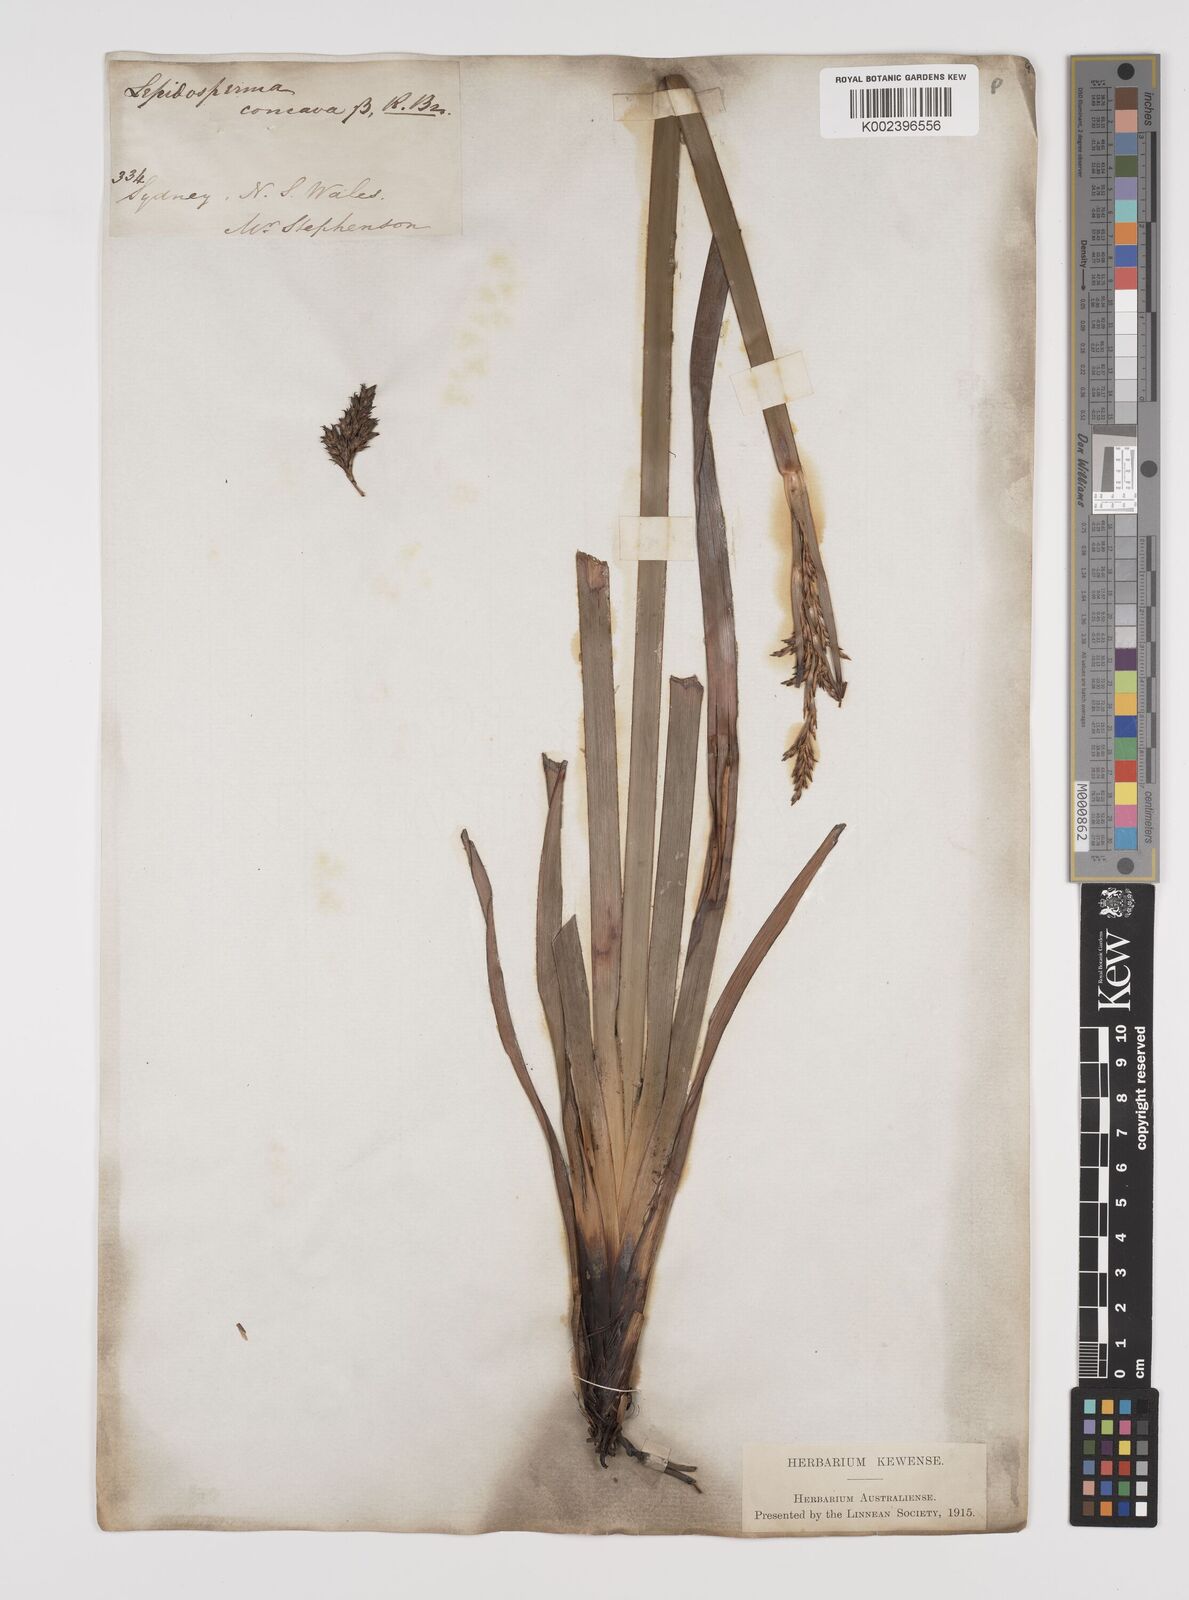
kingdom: Plantae
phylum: Tracheophyta
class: Liliopsida
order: Poales
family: Cyperaceae
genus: Lepidosperma
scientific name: Lepidosperma concavum
